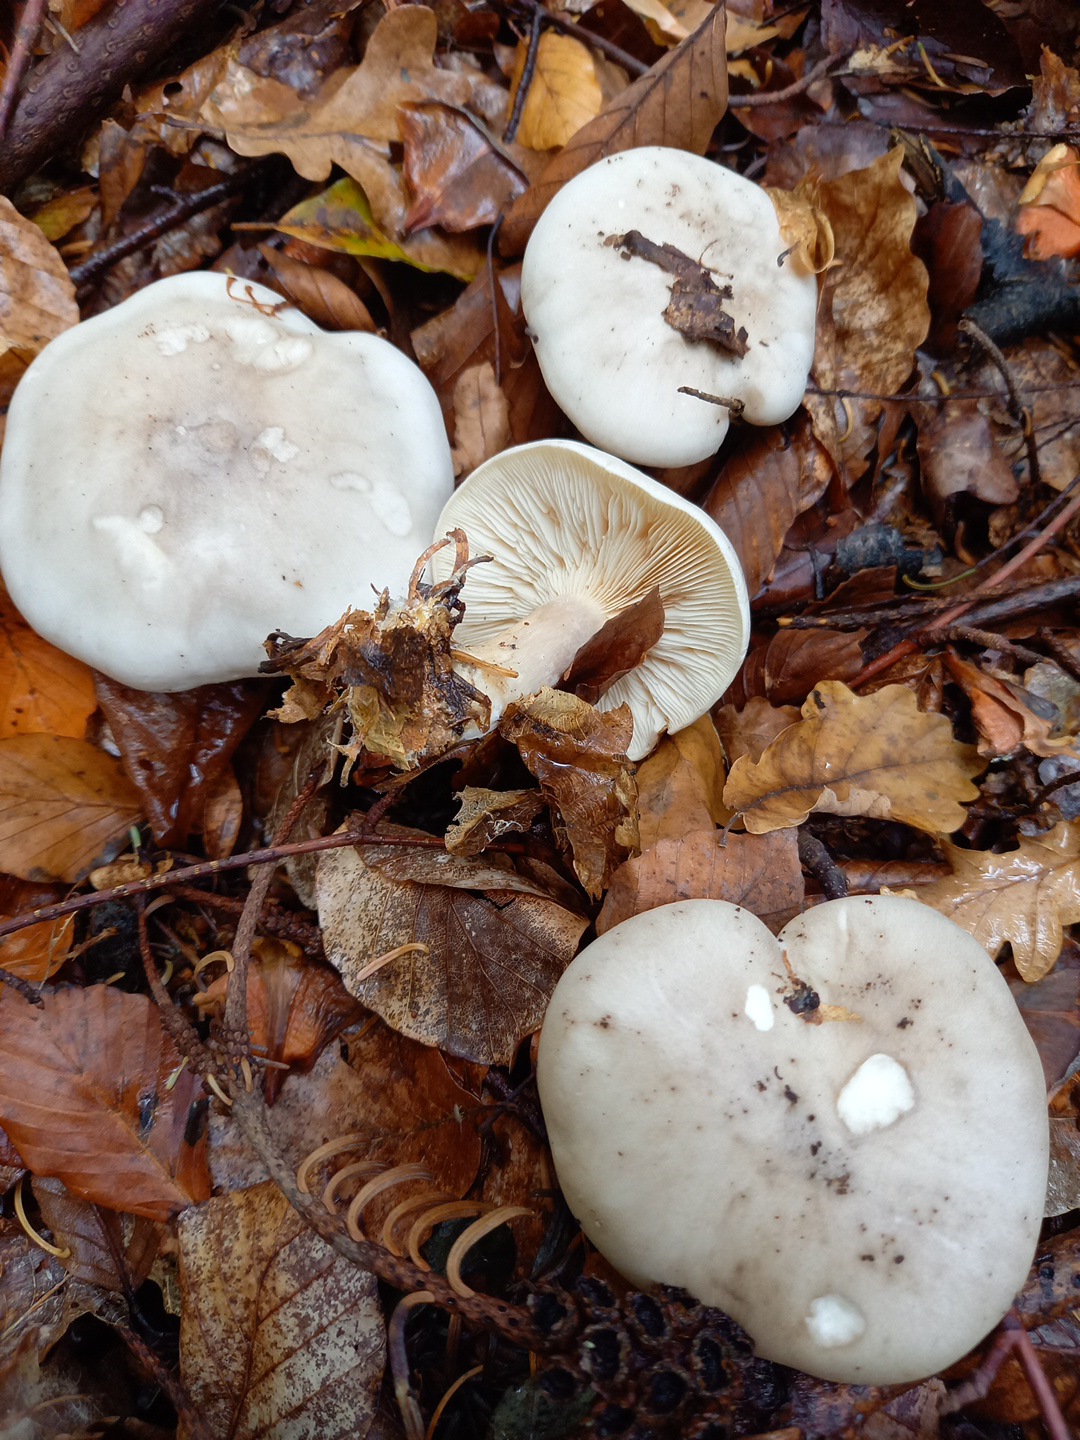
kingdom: Fungi
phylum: Basidiomycota
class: Agaricomycetes
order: Agaricales
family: Tricholomataceae
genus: Clitocybe
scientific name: Clitocybe nebularis
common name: tåge-tragthat
